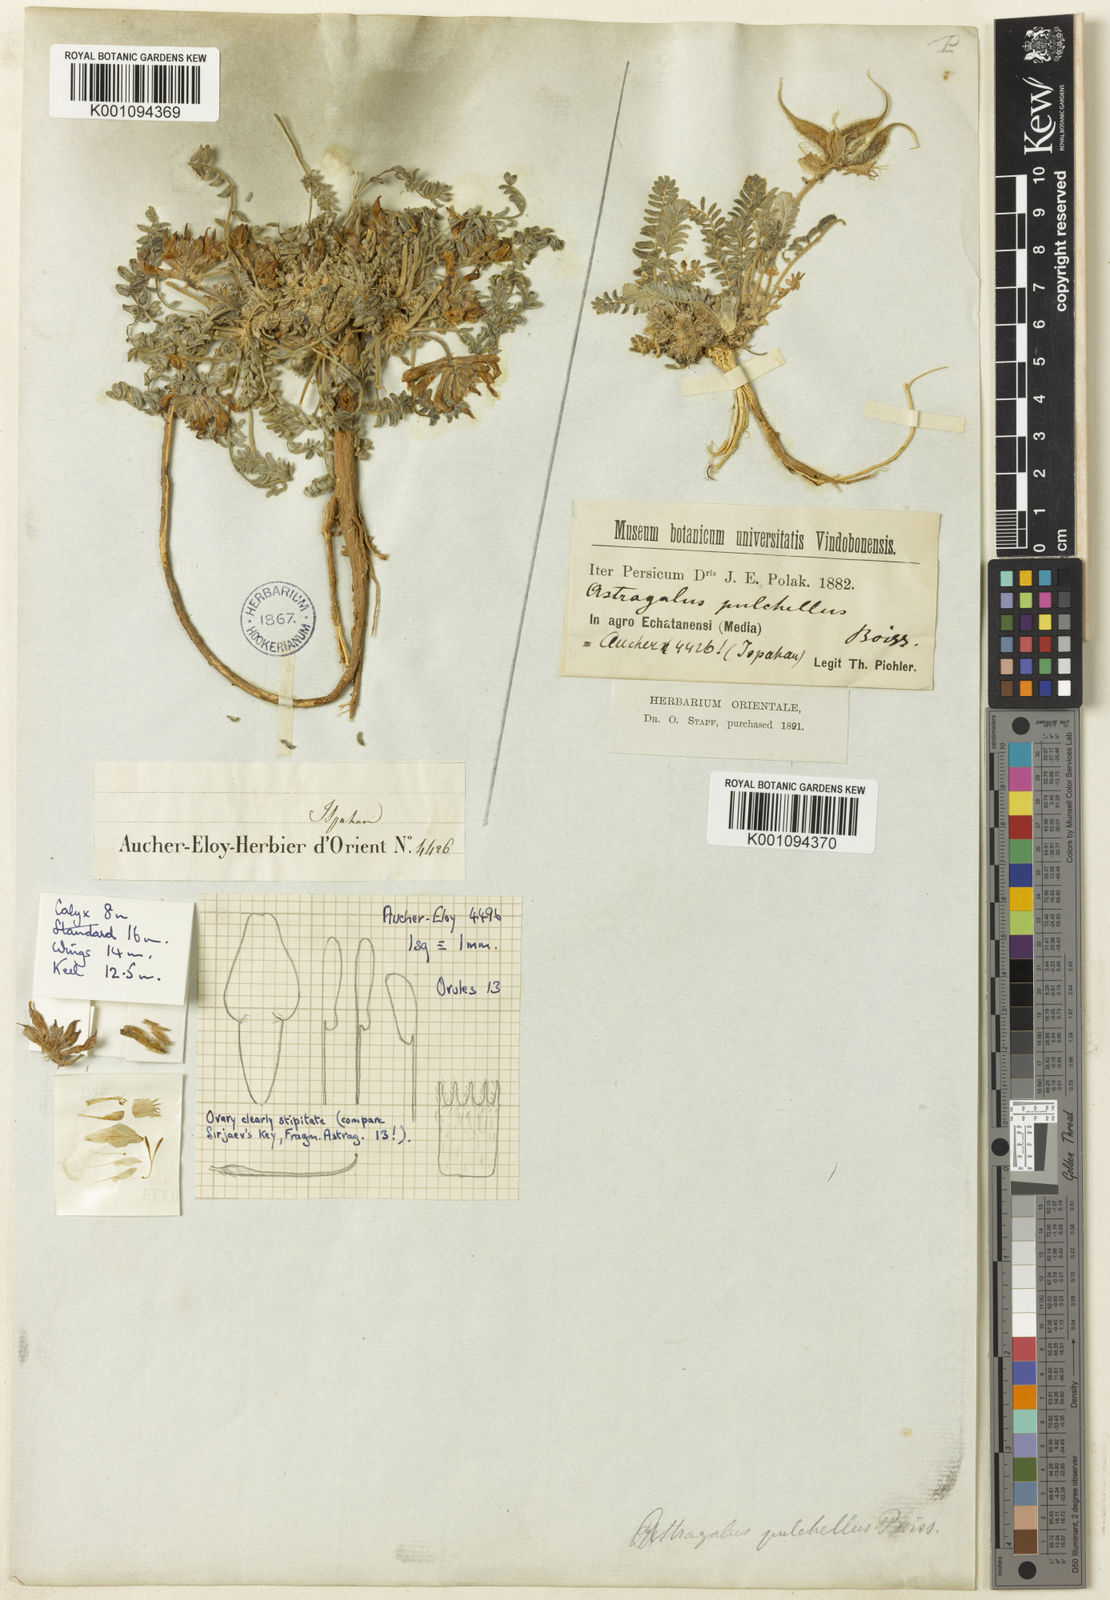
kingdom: Plantae
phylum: Tracheophyta
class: Magnoliopsida
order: Fabales
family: Fabaceae
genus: Astragalus
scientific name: Astragalus
